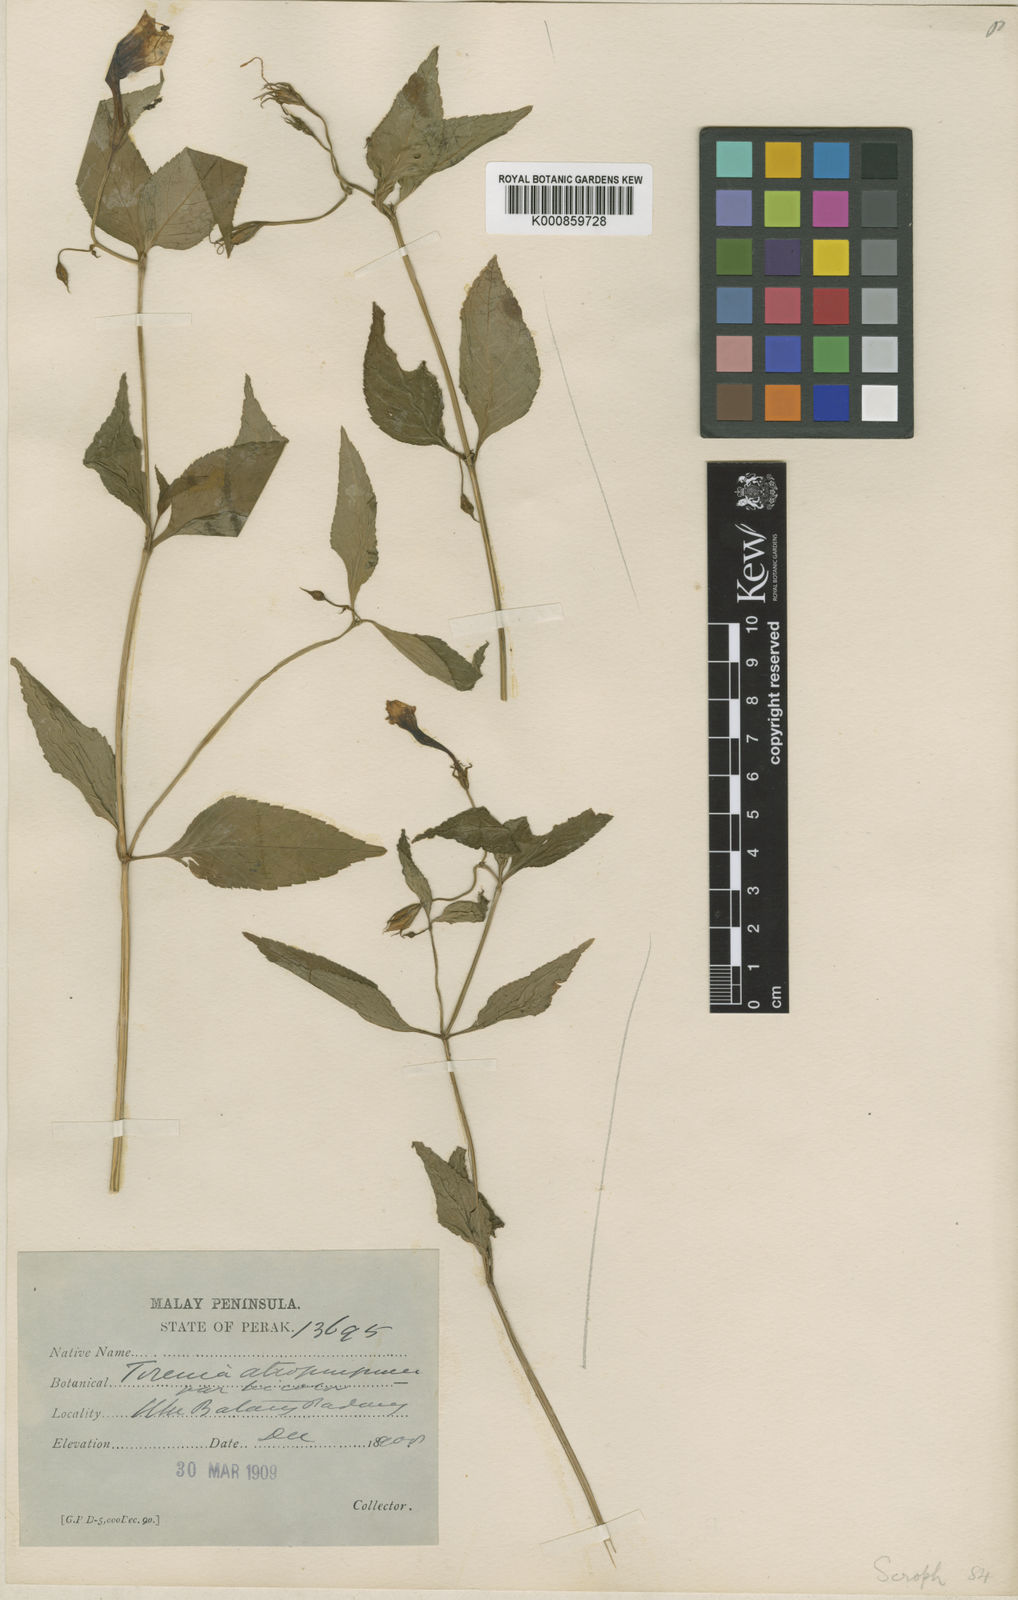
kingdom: Plantae
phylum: Tracheophyta
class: Magnoliopsida
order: Lamiales
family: Linderniaceae
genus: Schizotorenia
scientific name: Schizotorenia atropurpurea
